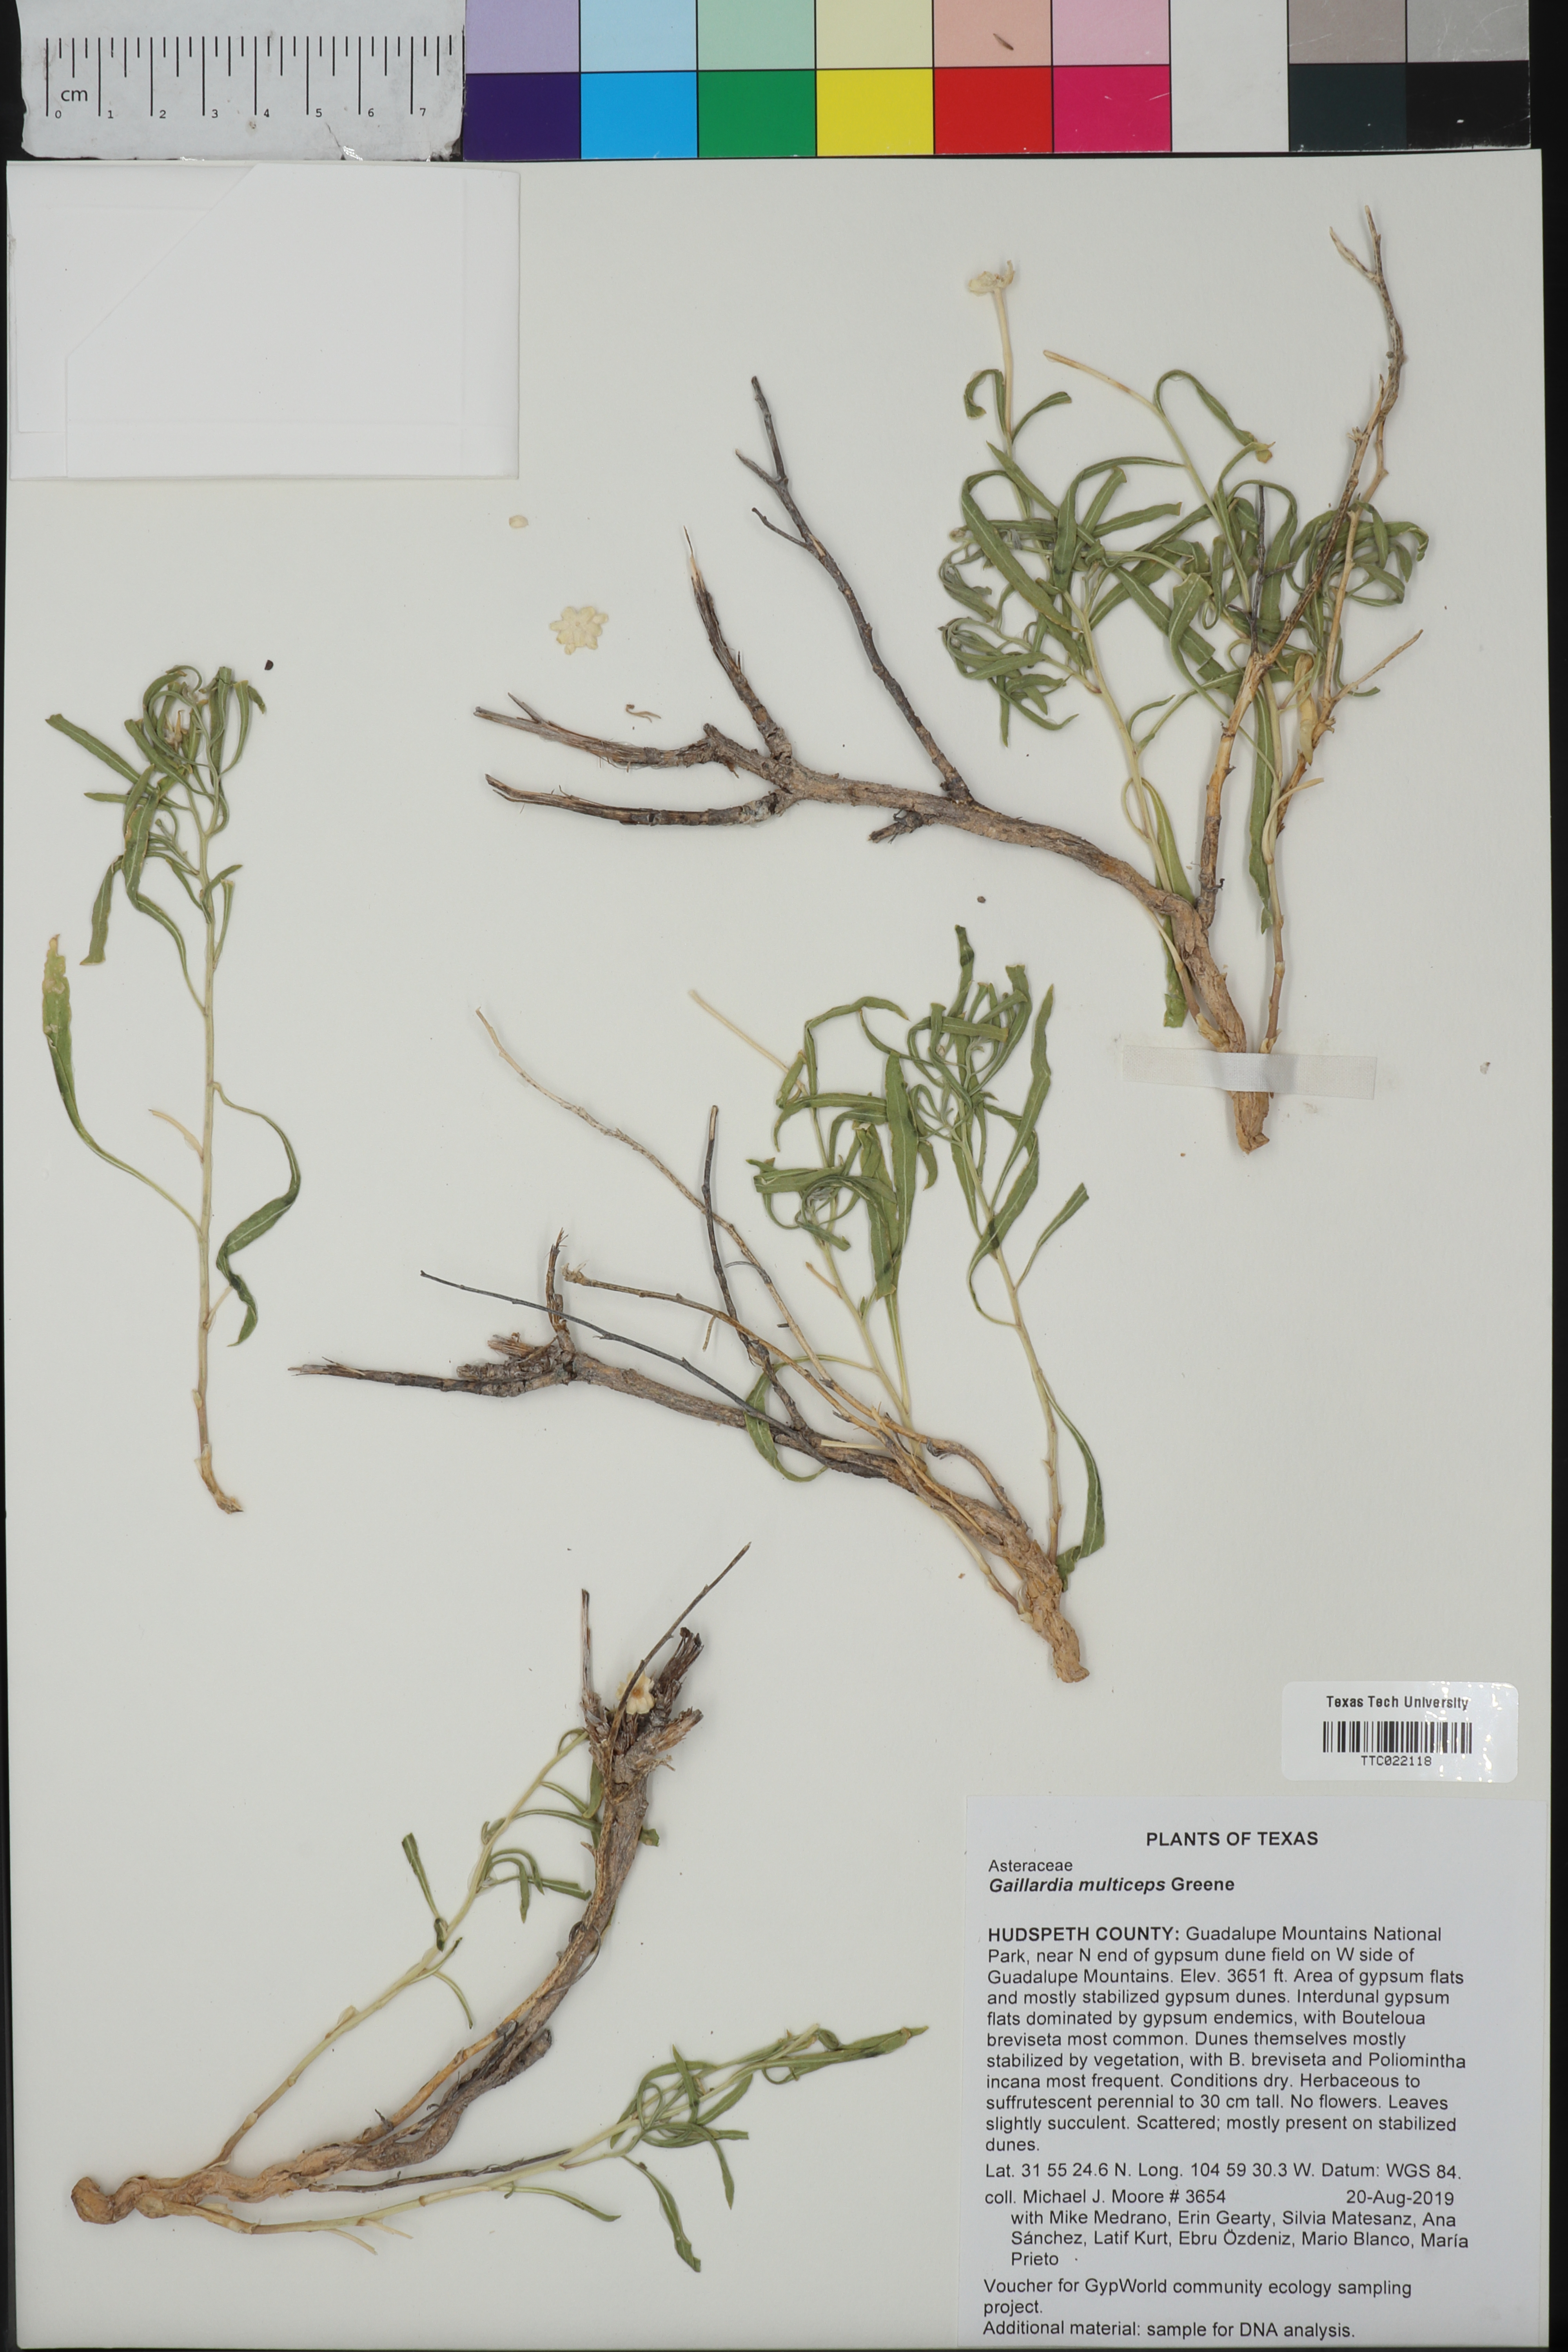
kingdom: Plantae
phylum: Tracheophyta
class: Magnoliopsida
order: Asterales
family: Asteraceae
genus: Gaillardia
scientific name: Gaillardia multiceps
